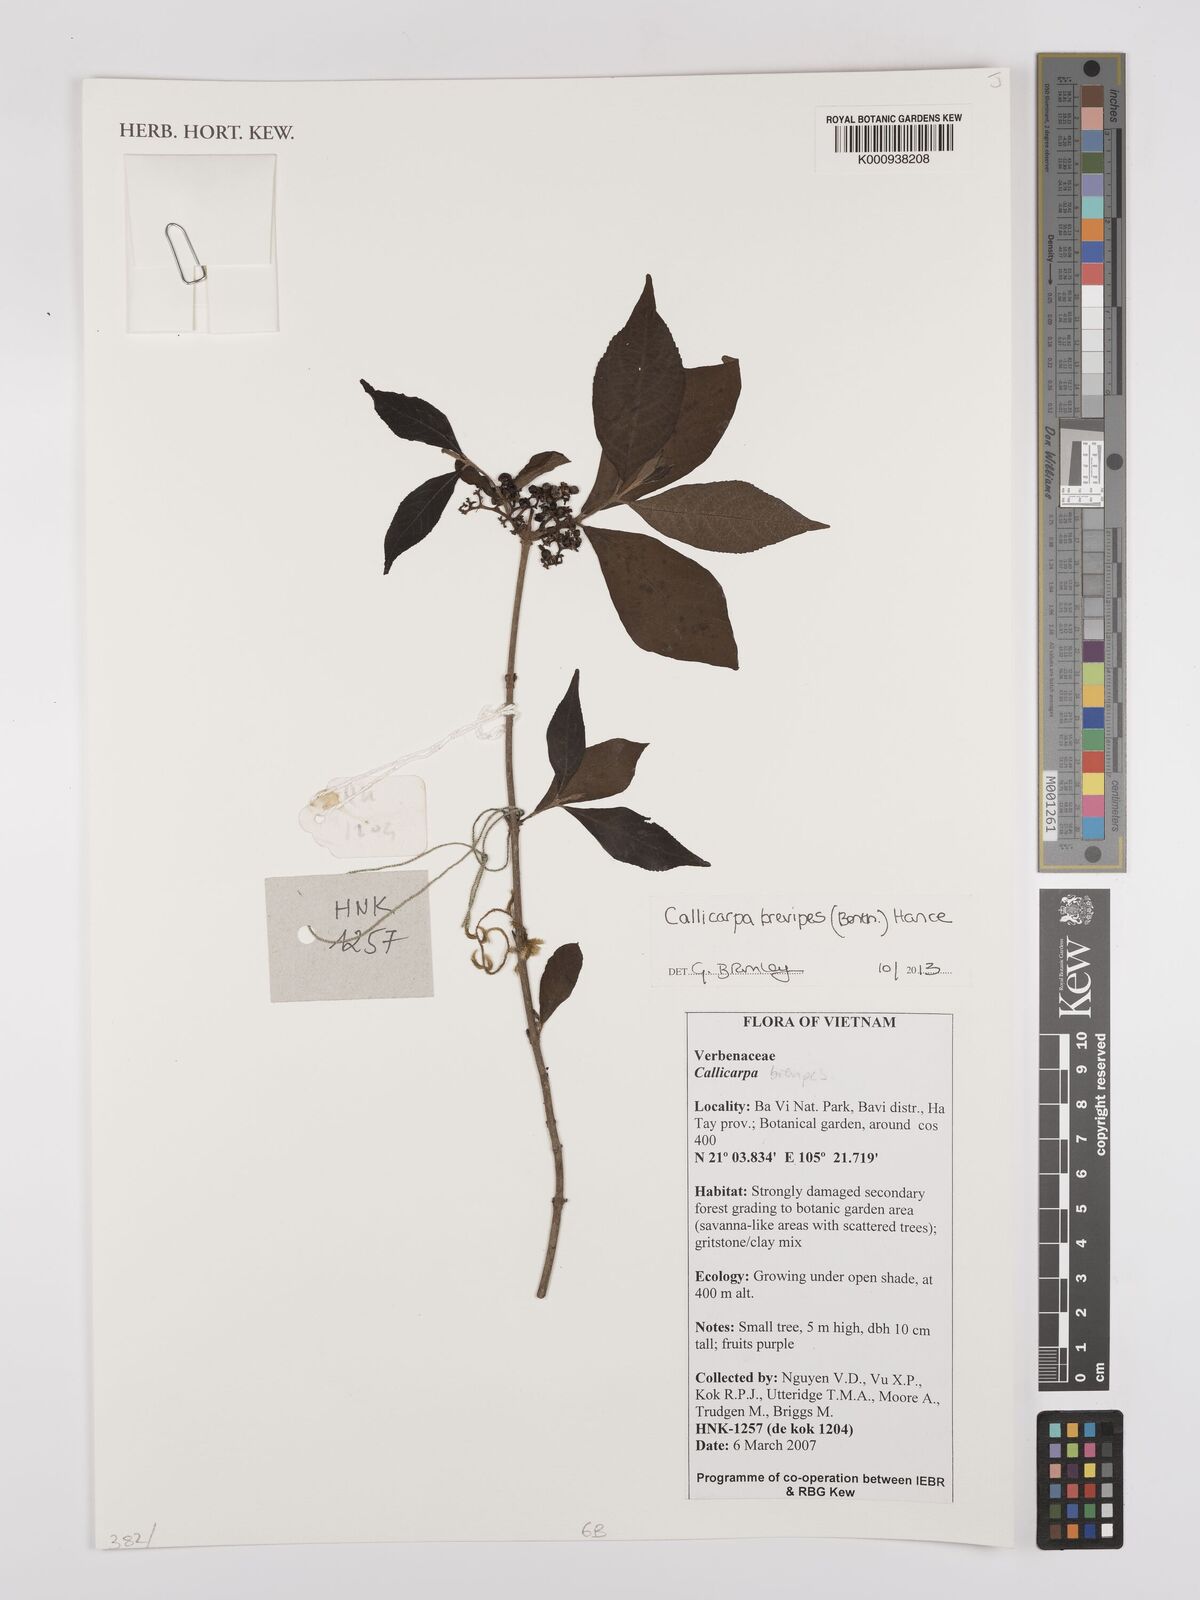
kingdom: Plantae
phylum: Tracheophyta
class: Magnoliopsida
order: Lamiales
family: Lamiaceae
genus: Callicarpa
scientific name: Callicarpa brevipes
